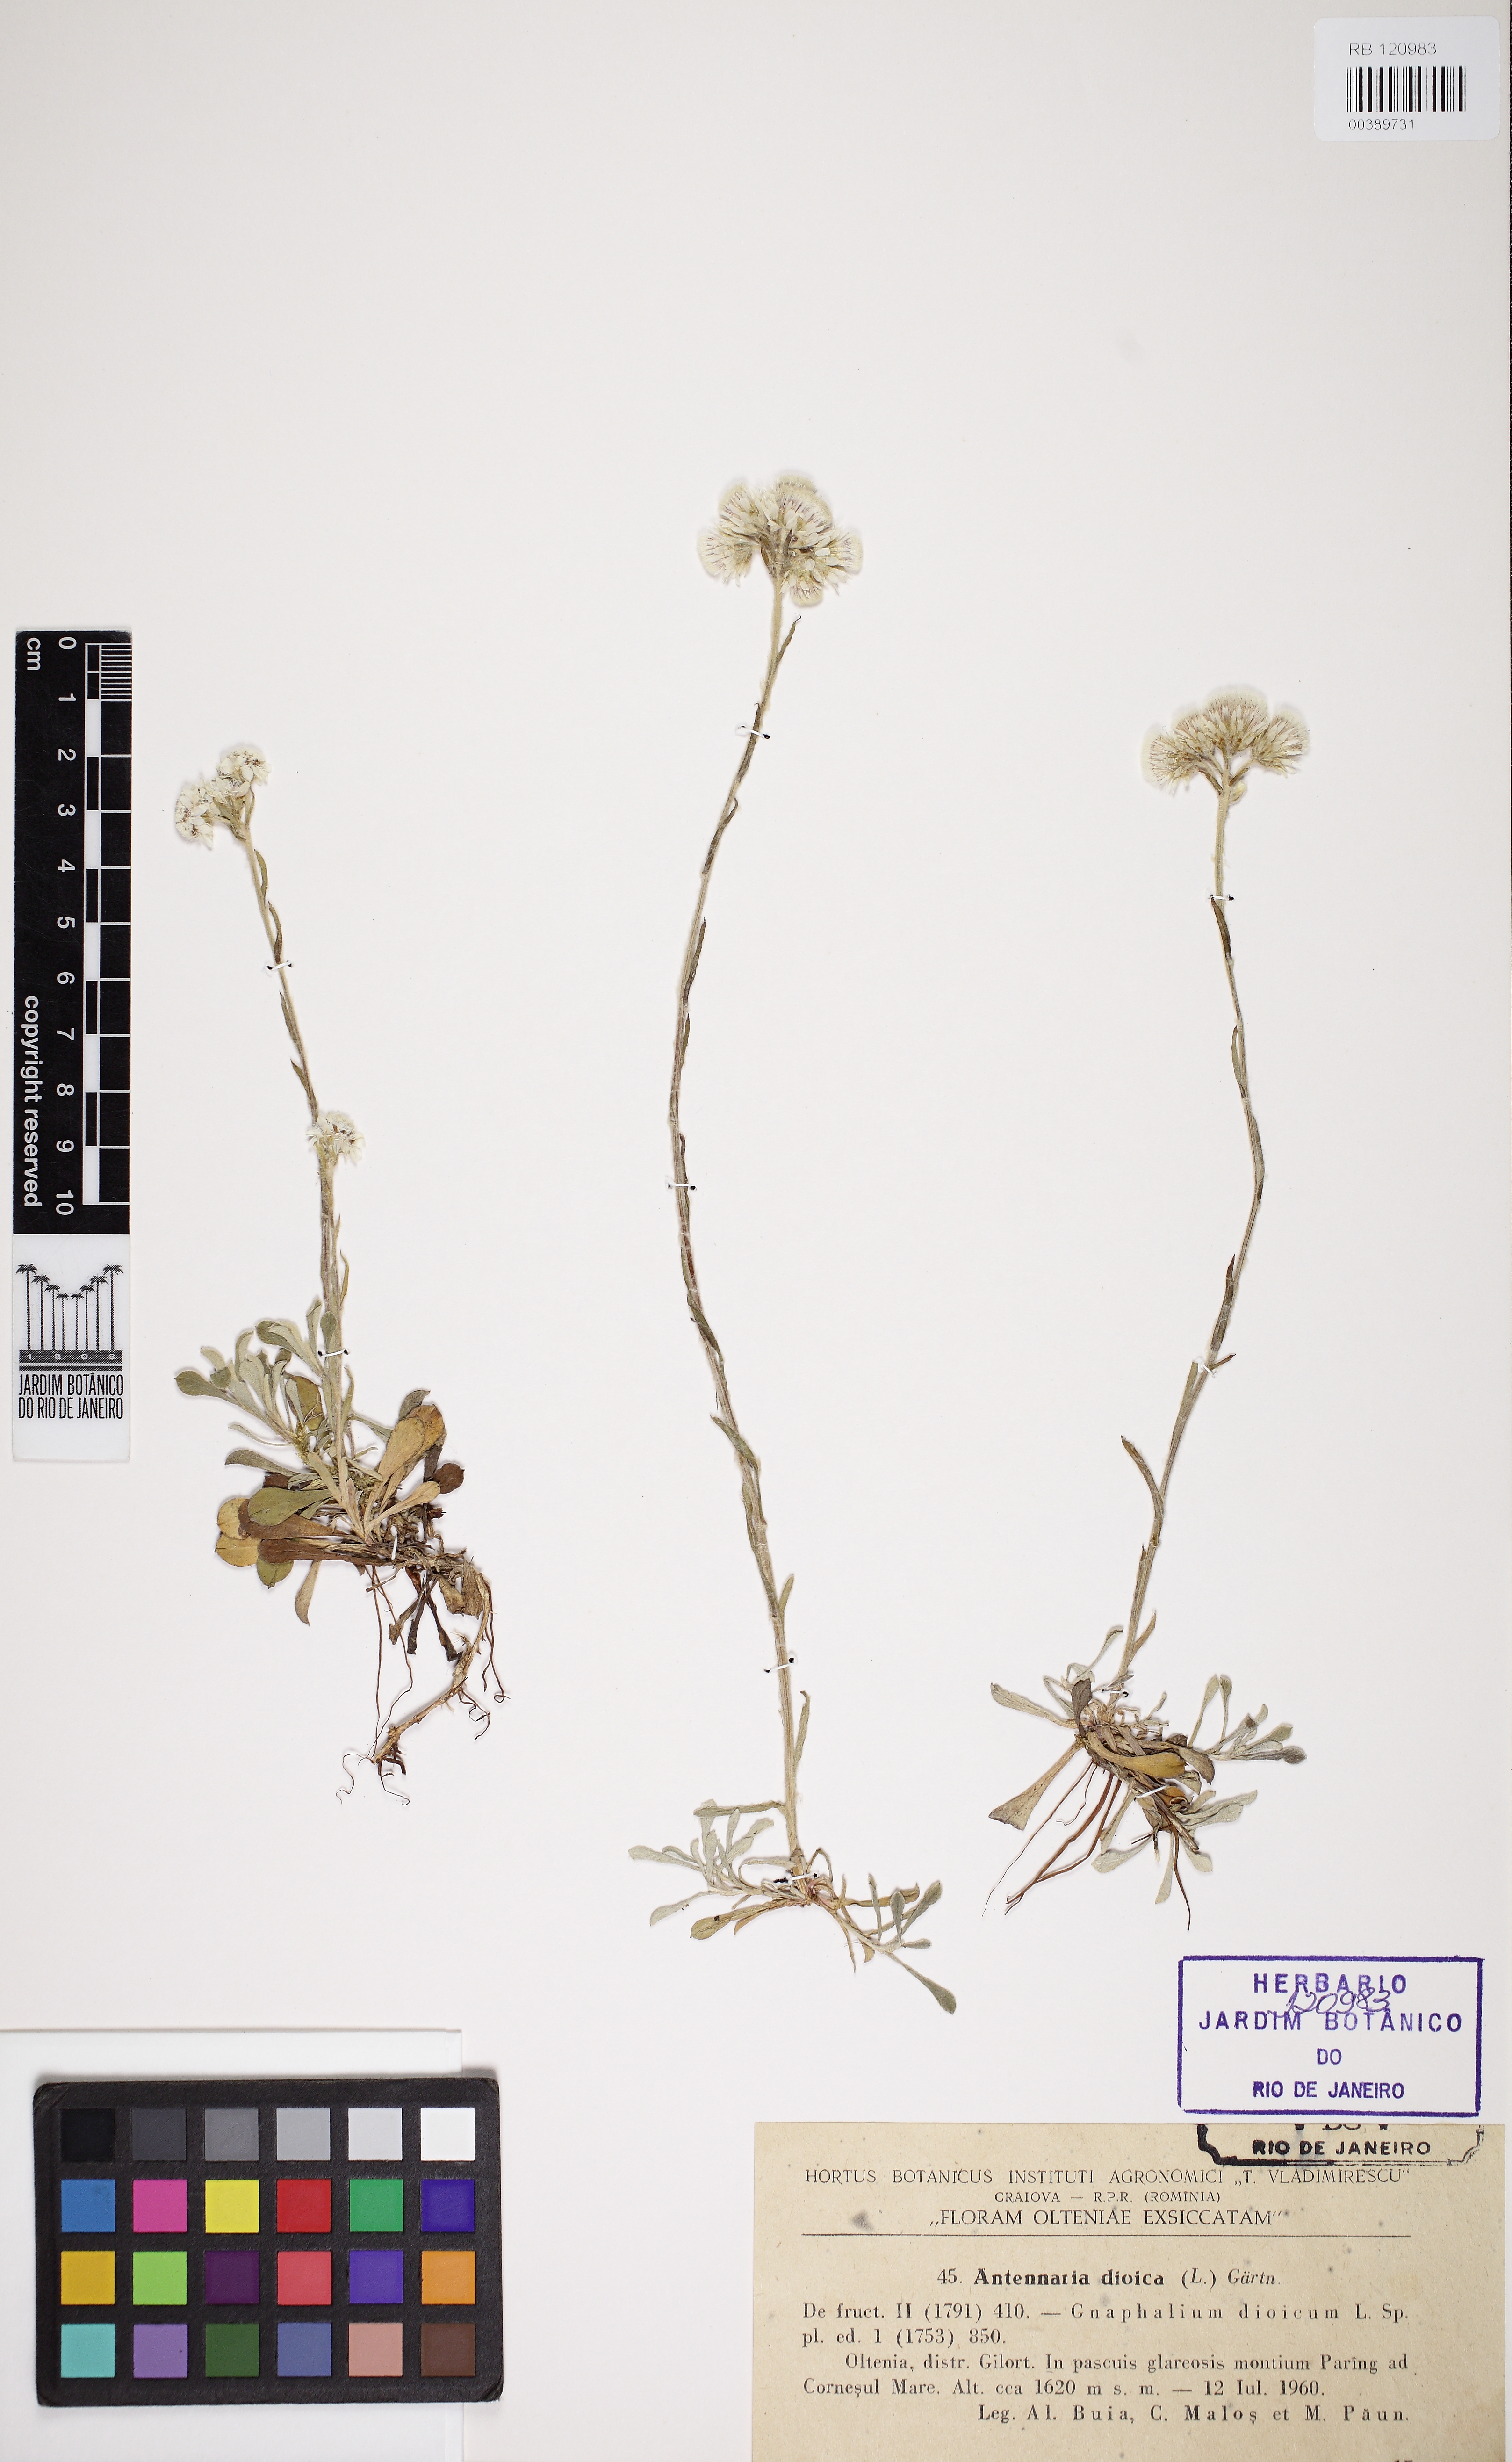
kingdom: Plantae
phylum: Tracheophyta
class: Magnoliopsida
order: Asterales
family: Asteraceae
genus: Antennaria
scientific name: Antennaria dioica
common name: Mountain everlasting
